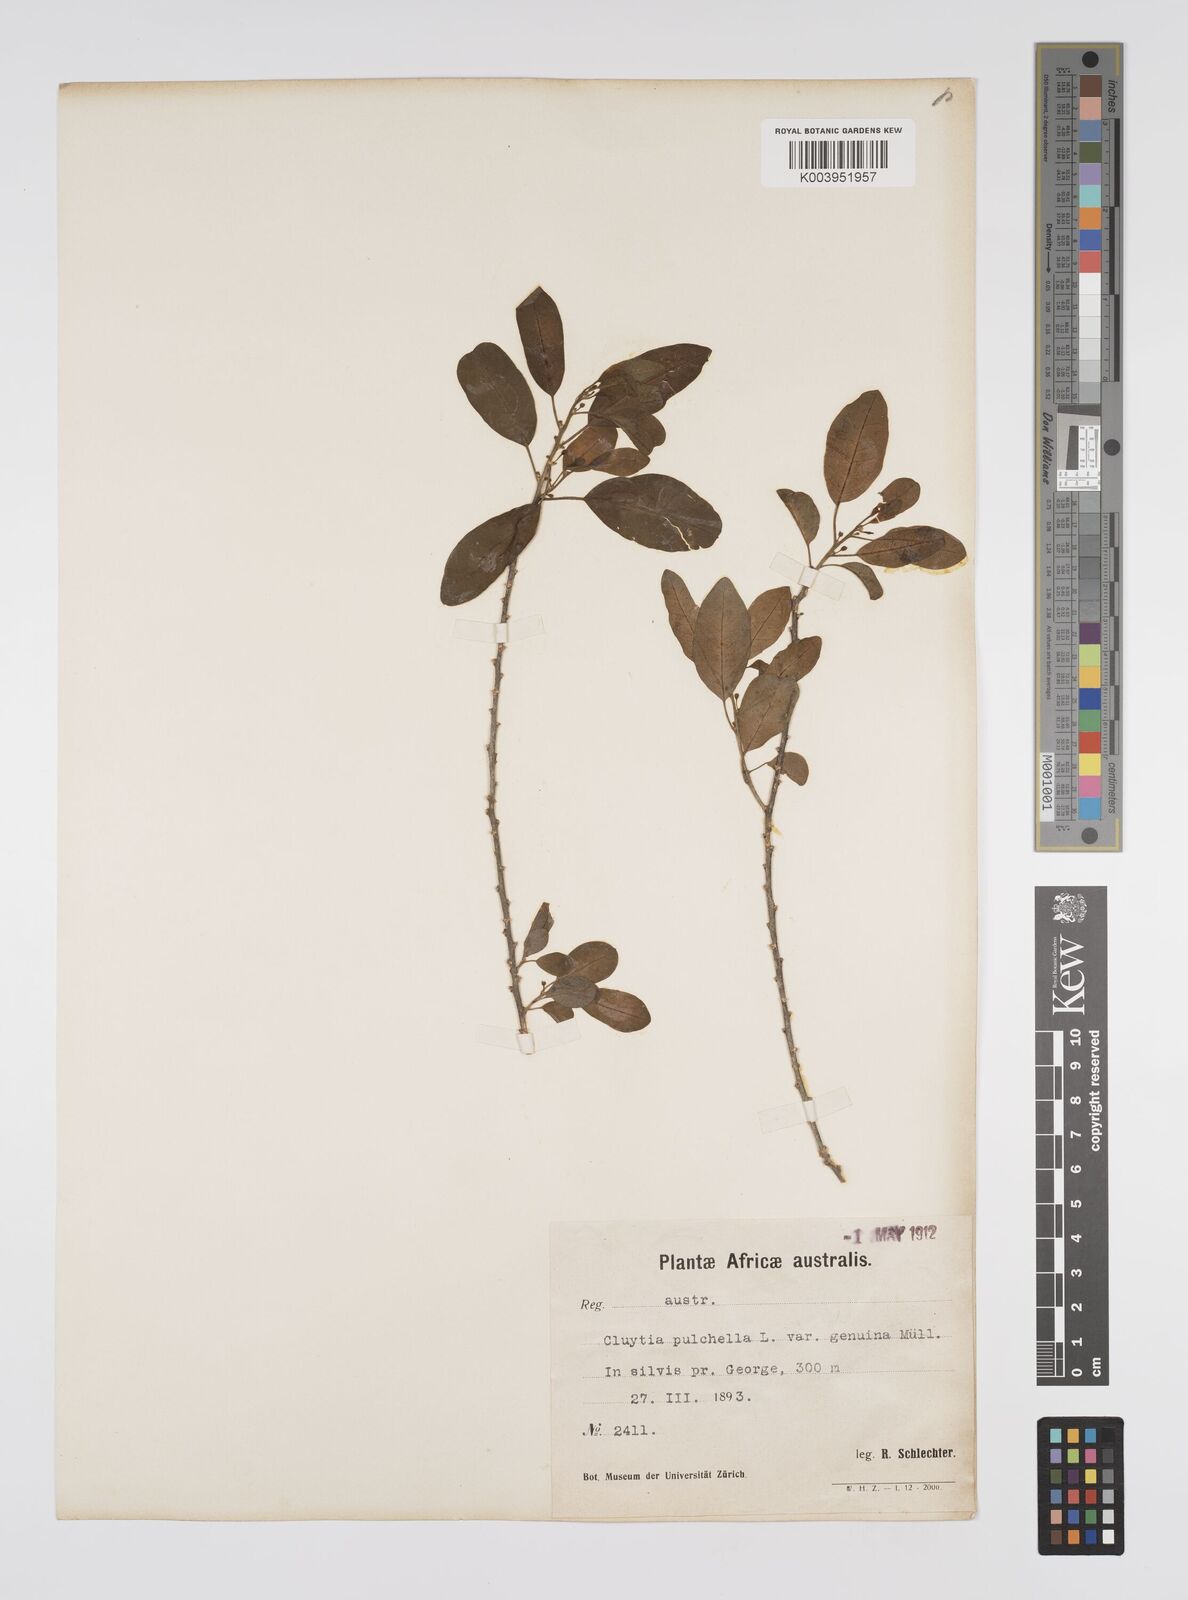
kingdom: Plantae
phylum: Tracheophyta
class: Magnoliopsida
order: Malpighiales
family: Peraceae
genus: Clutia
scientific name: Clutia pulchella
